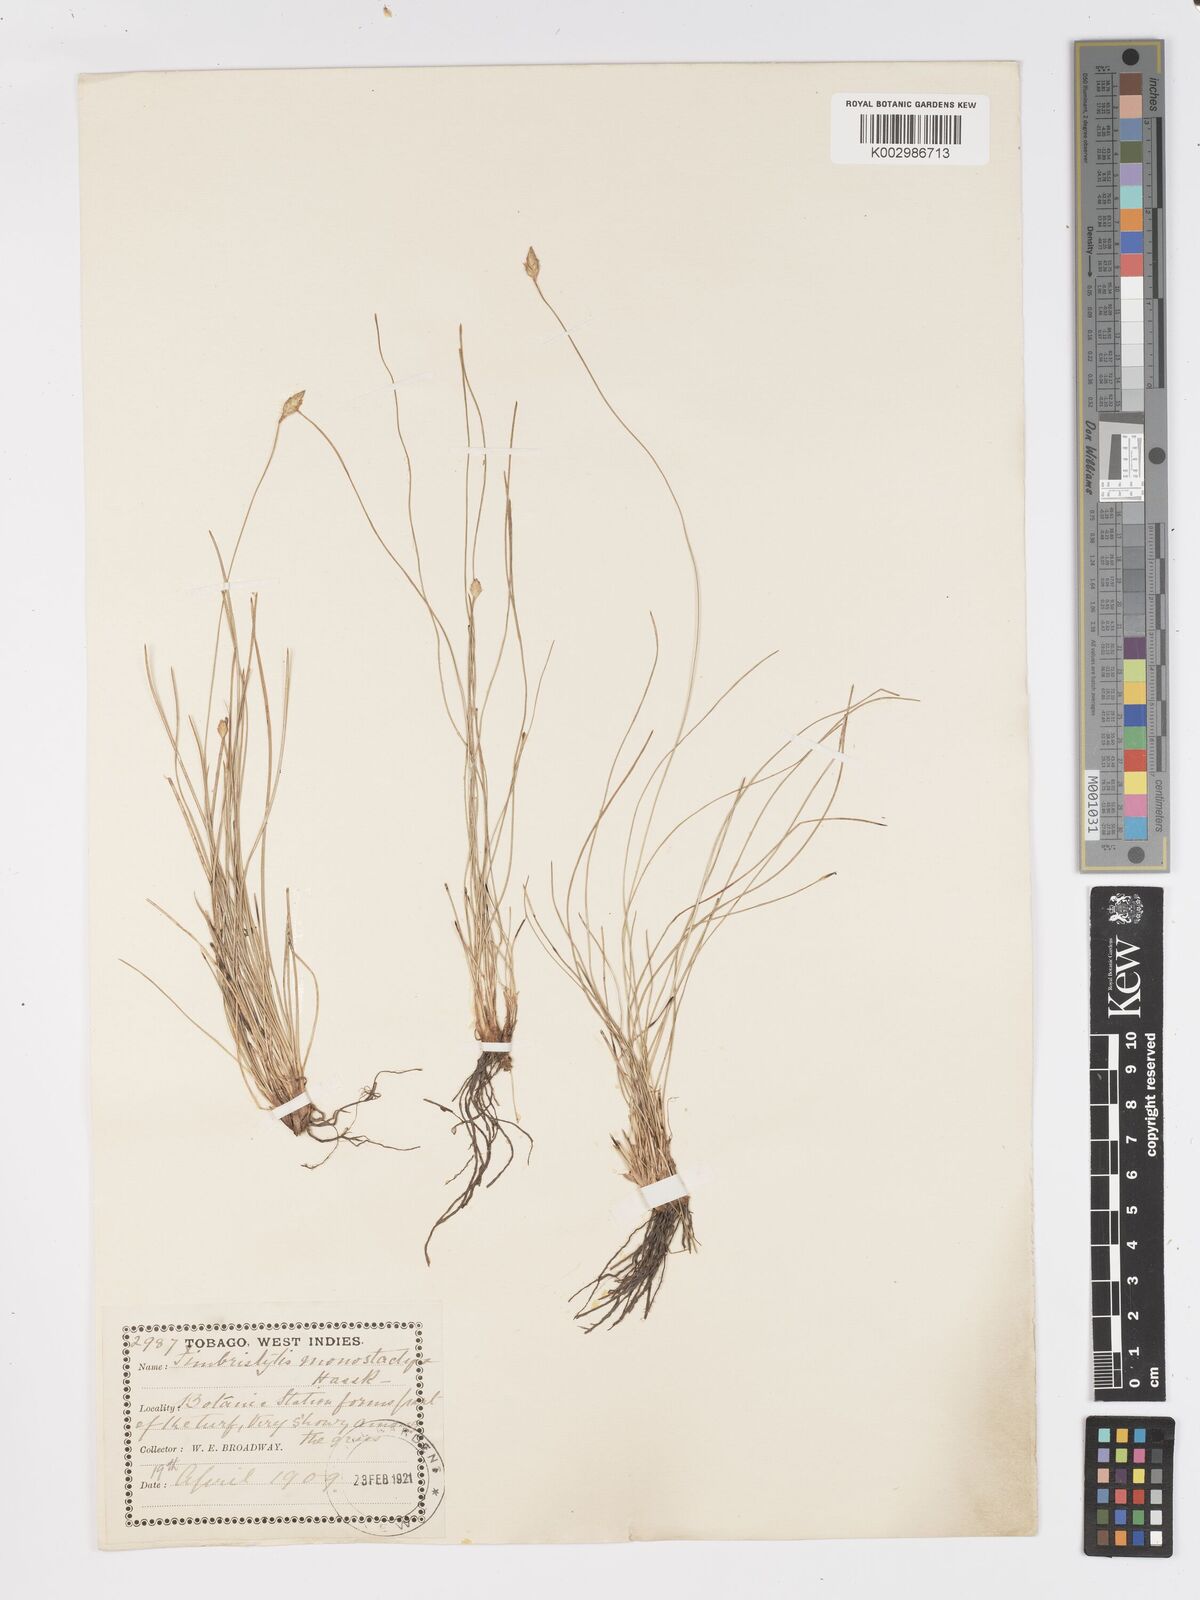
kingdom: Plantae
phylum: Tracheophyta
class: Liliopsida
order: Poales
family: Cyperaceae
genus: Fimbristylis
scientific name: Fimbristylis
